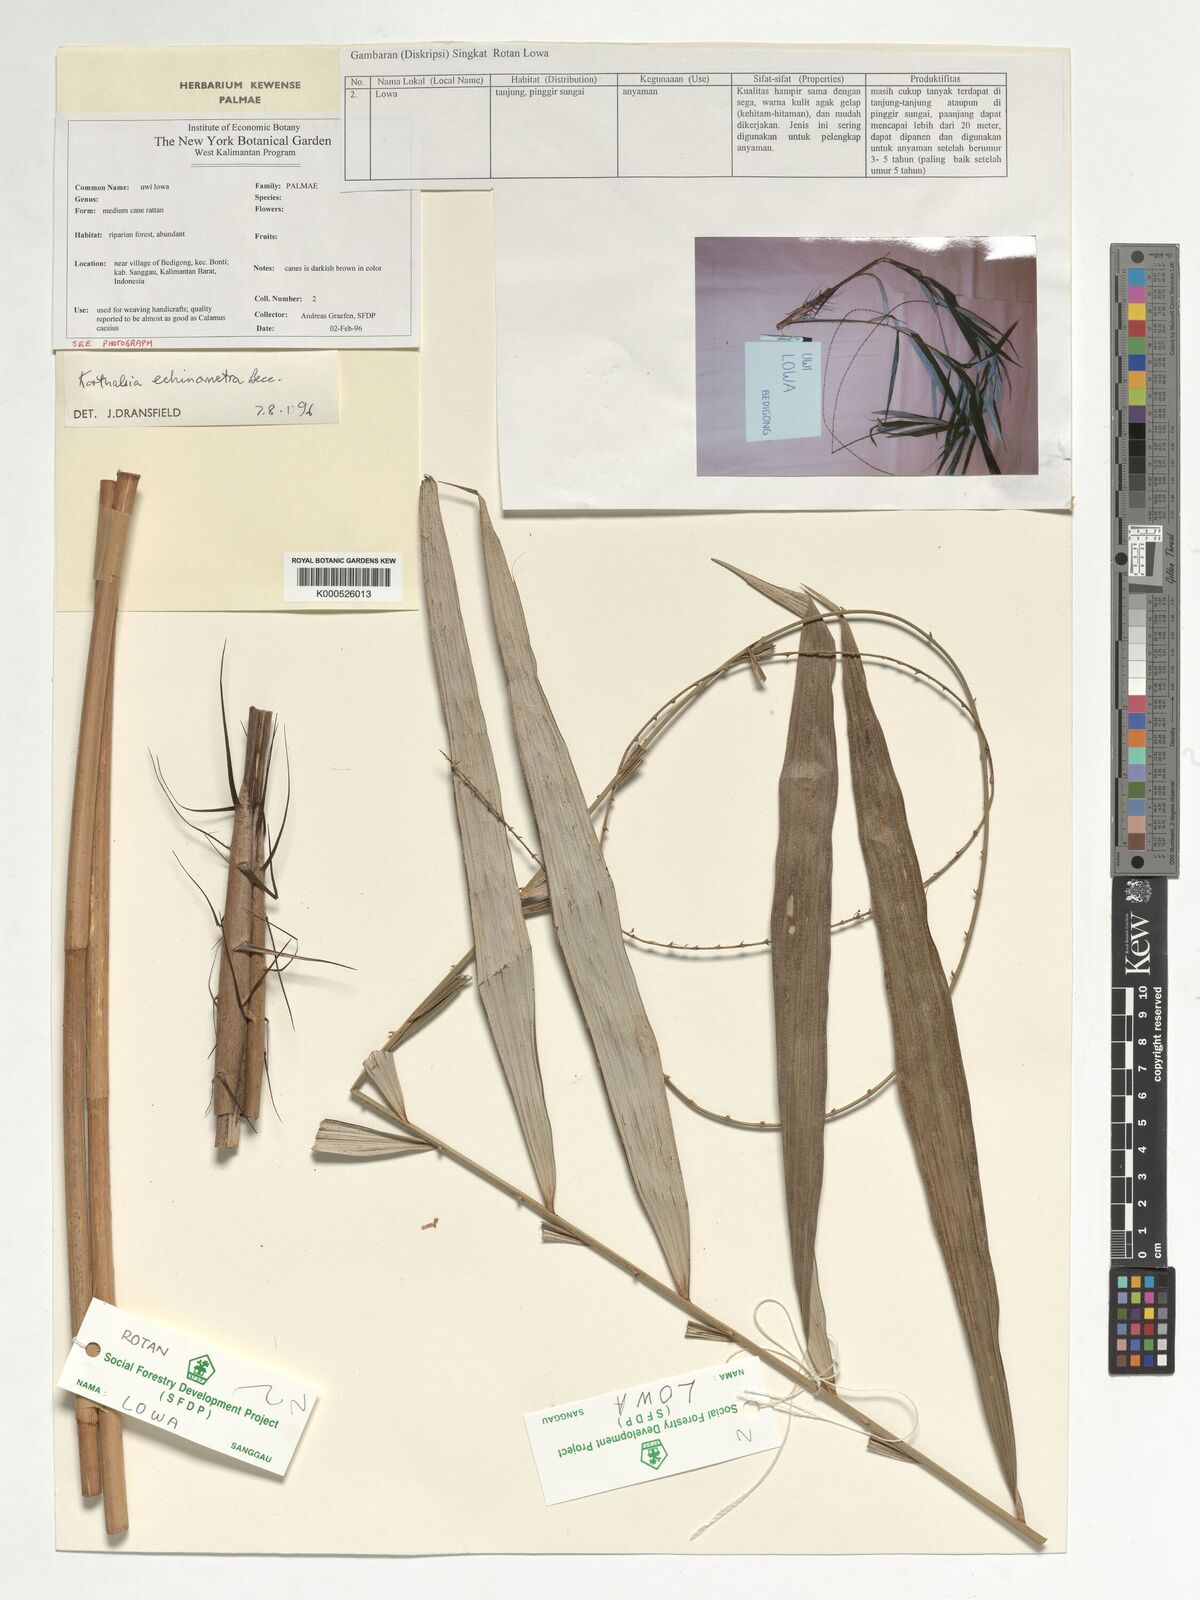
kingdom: Plantae
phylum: Tracheophyta
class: Liliopsida
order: Arecales
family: Arecaceae
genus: Korthalsia
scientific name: Korthalsia echinometra
